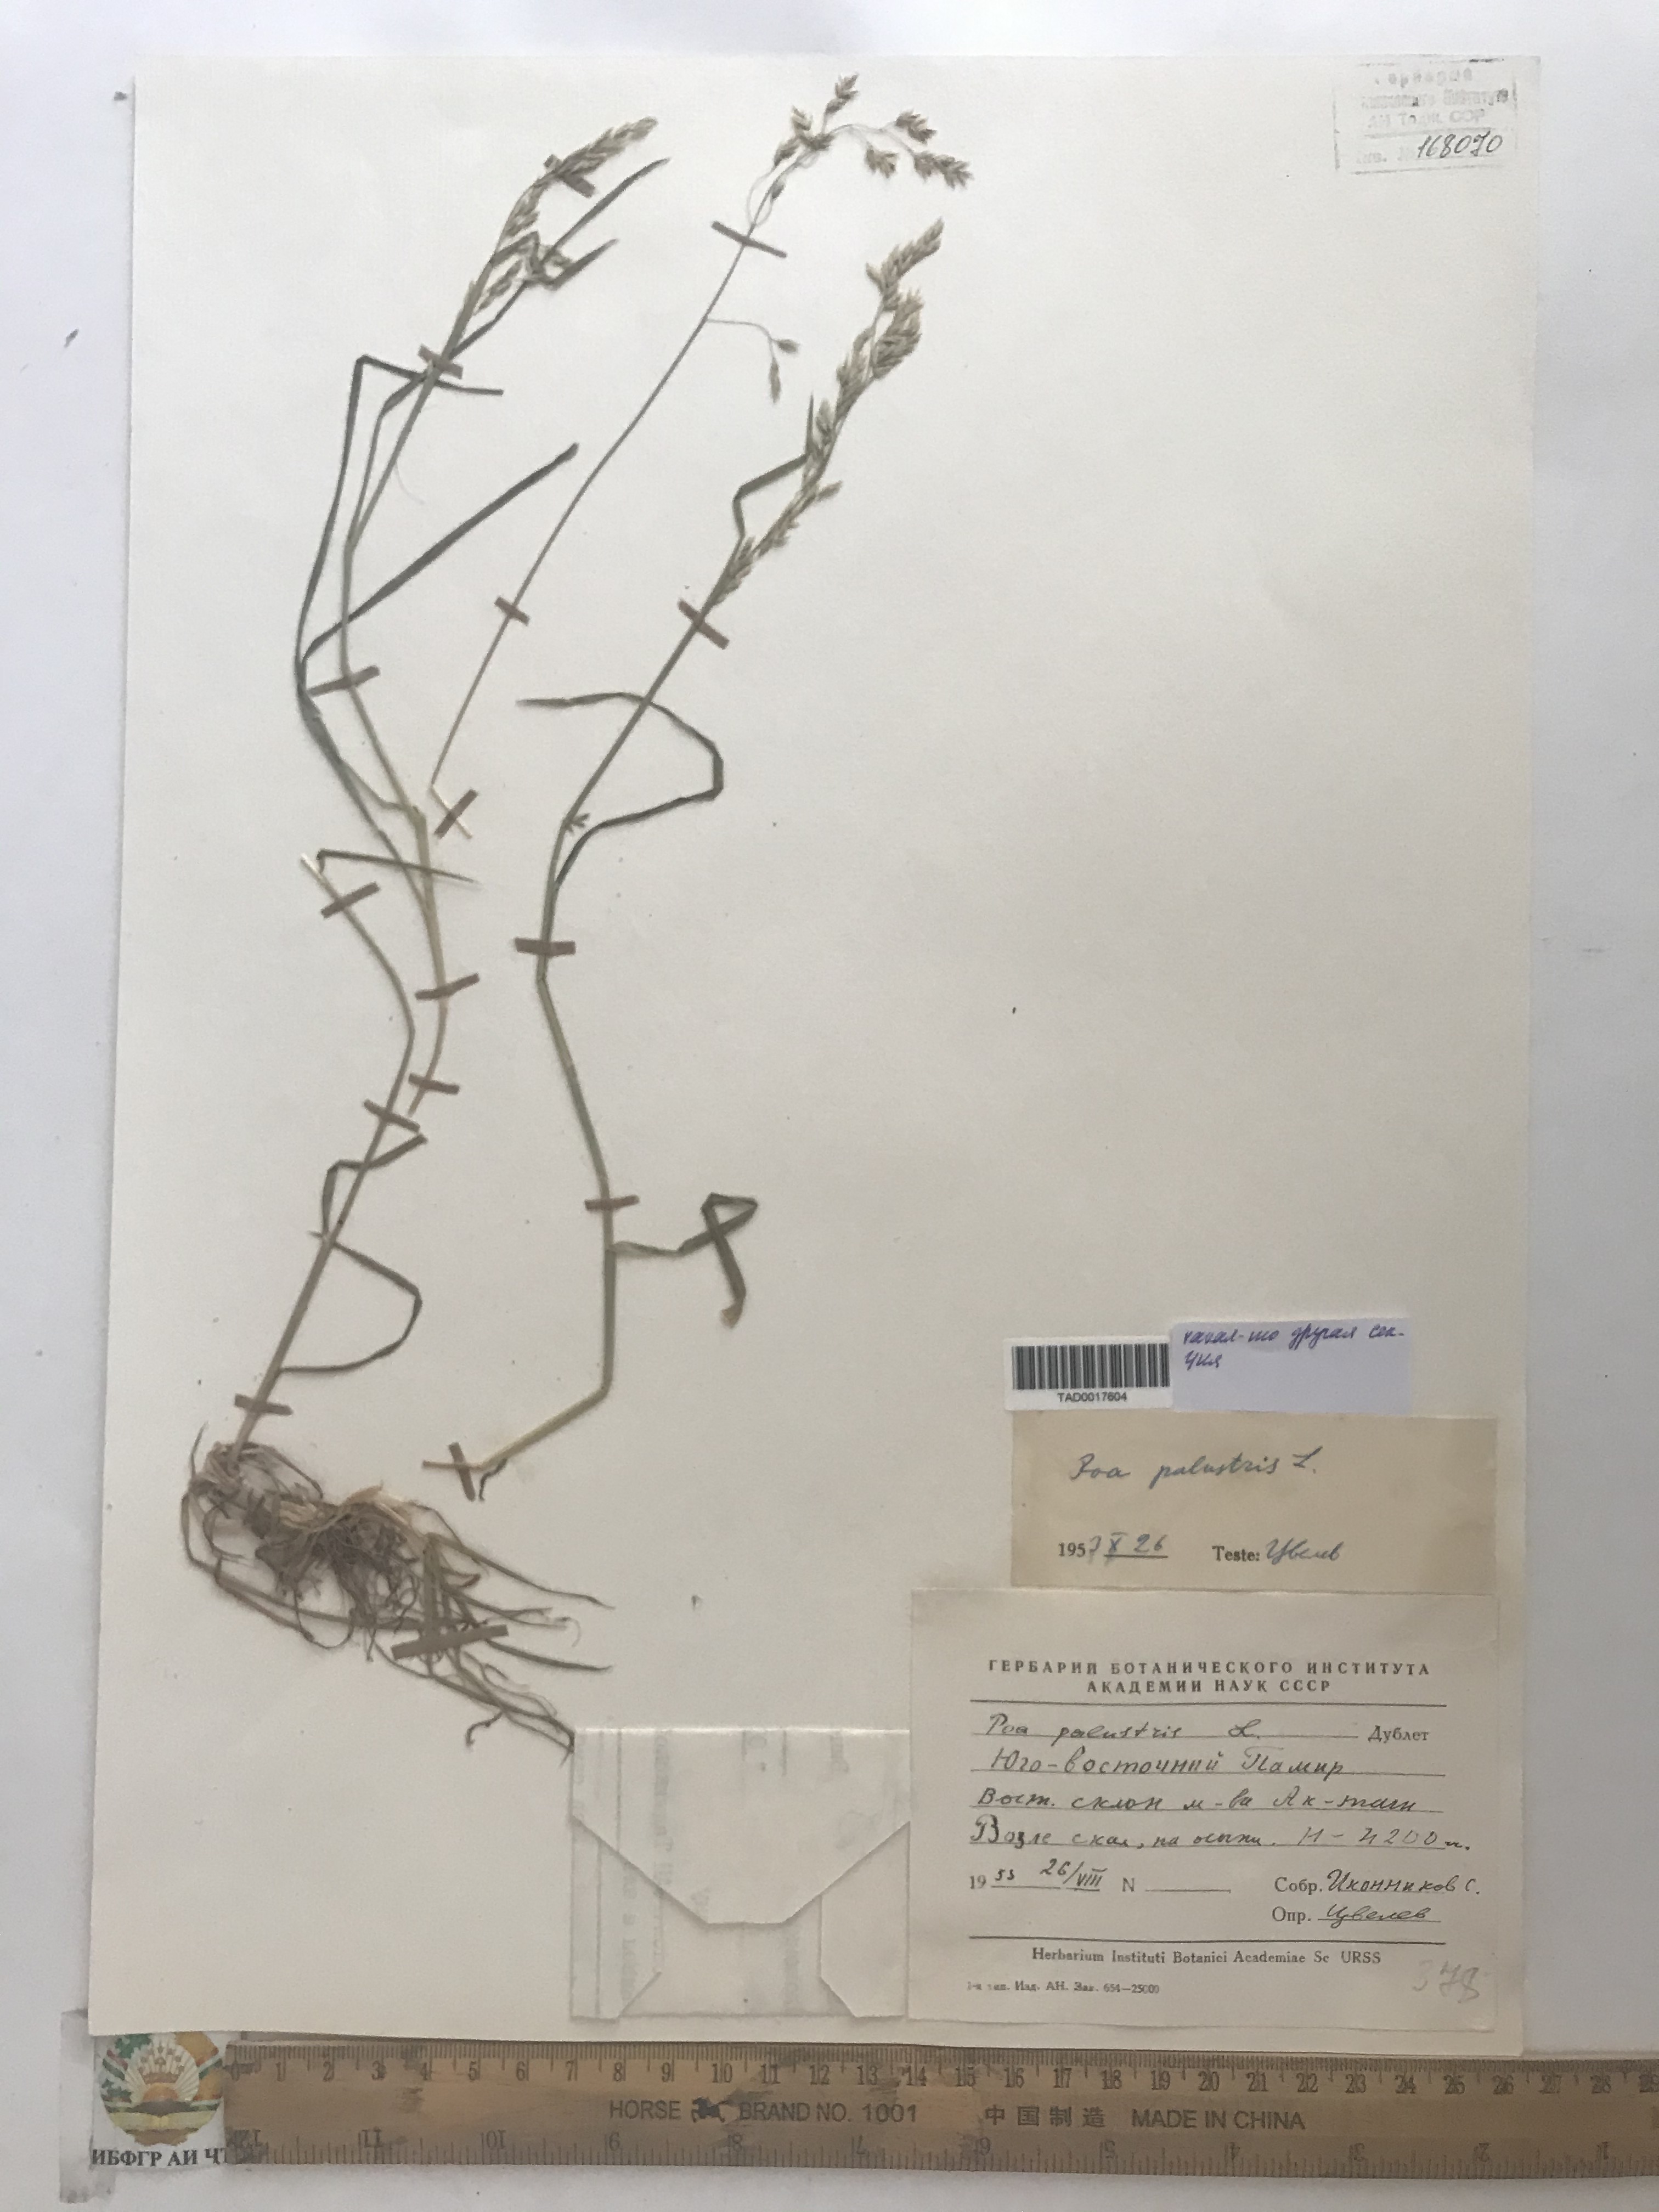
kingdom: Plantae
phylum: Tracheophyta
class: Liliopsida
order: Poales
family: Poaceae
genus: Poa
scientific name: Poa palustris
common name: Swamp meadow-grass
